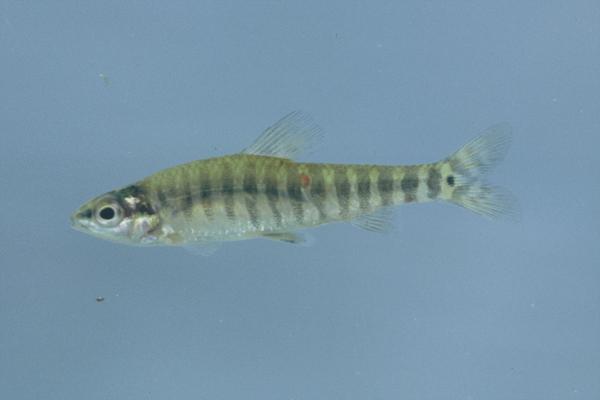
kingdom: Animalia
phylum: Chordata
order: Characiformes
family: Distichodontidae
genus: Nannocharax
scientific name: Nannocharax machadoi
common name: Dwarf citharine
